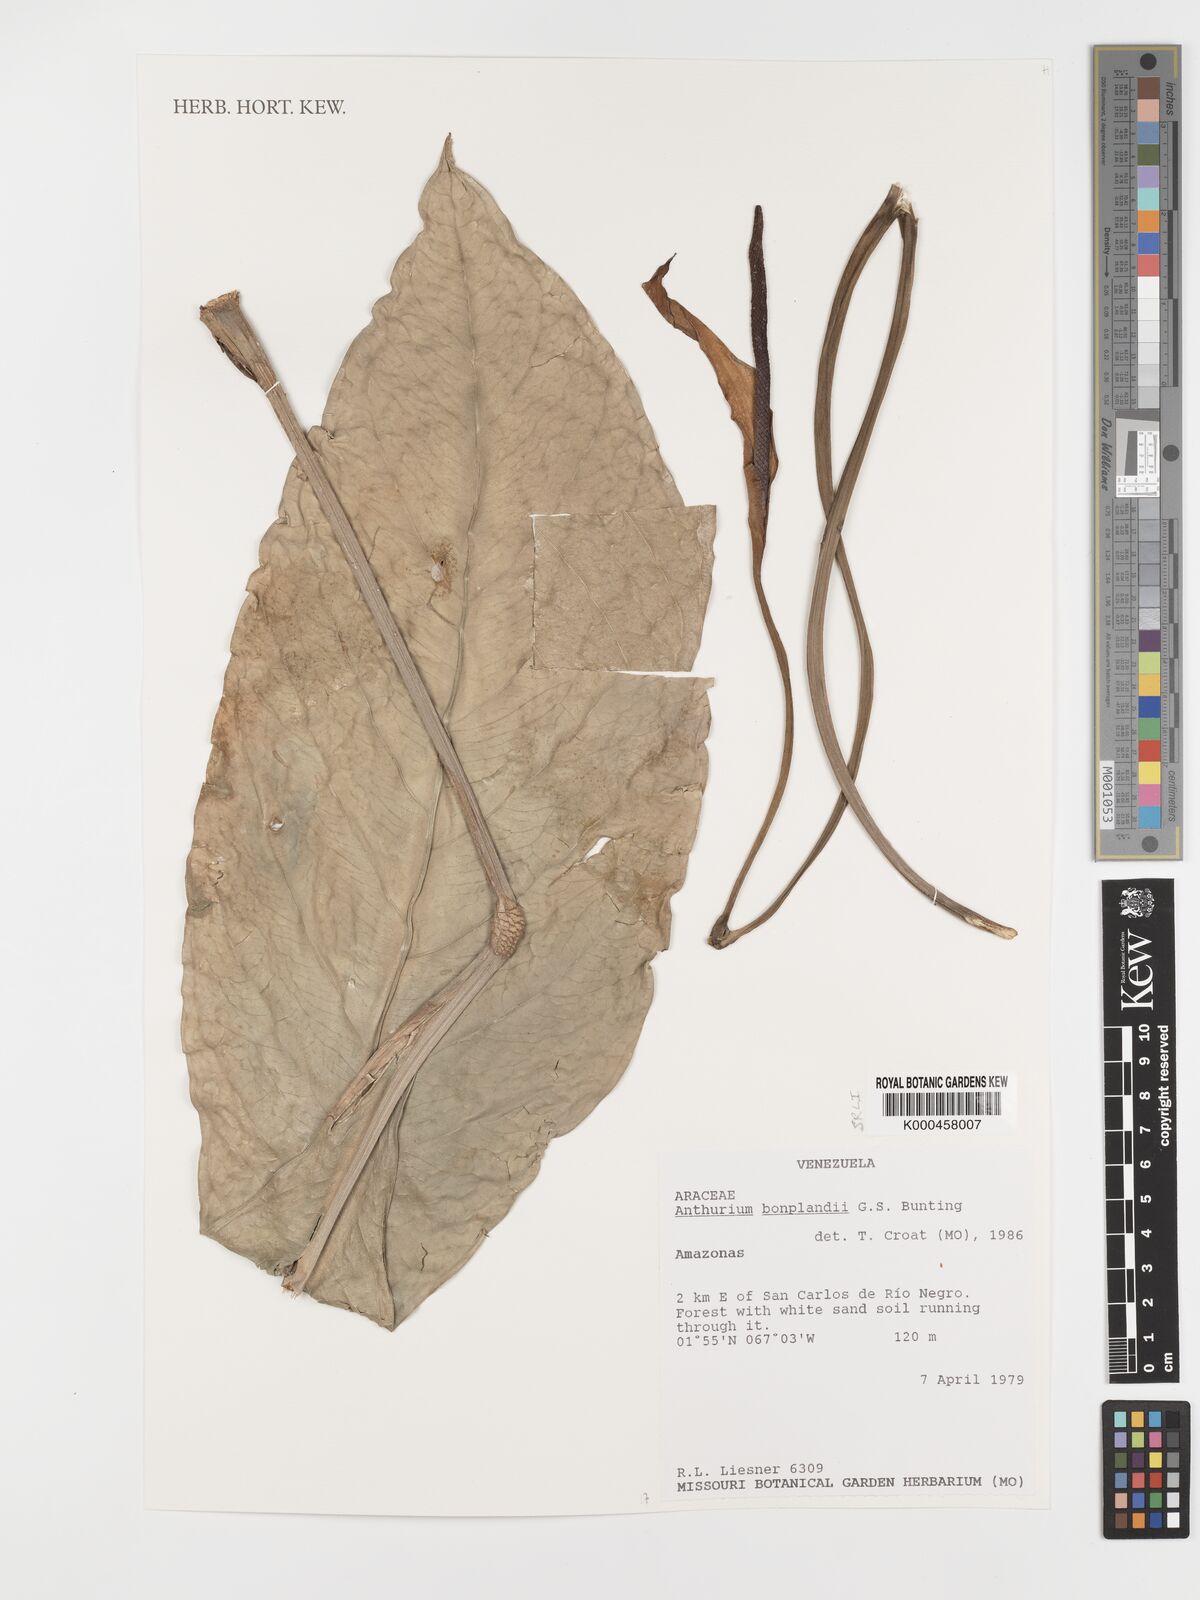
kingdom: Plantae
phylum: Tracheophyta
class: Liliopsida
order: Alismatales
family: Araceae
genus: Anthurium
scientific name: Anthurium bonplandii
